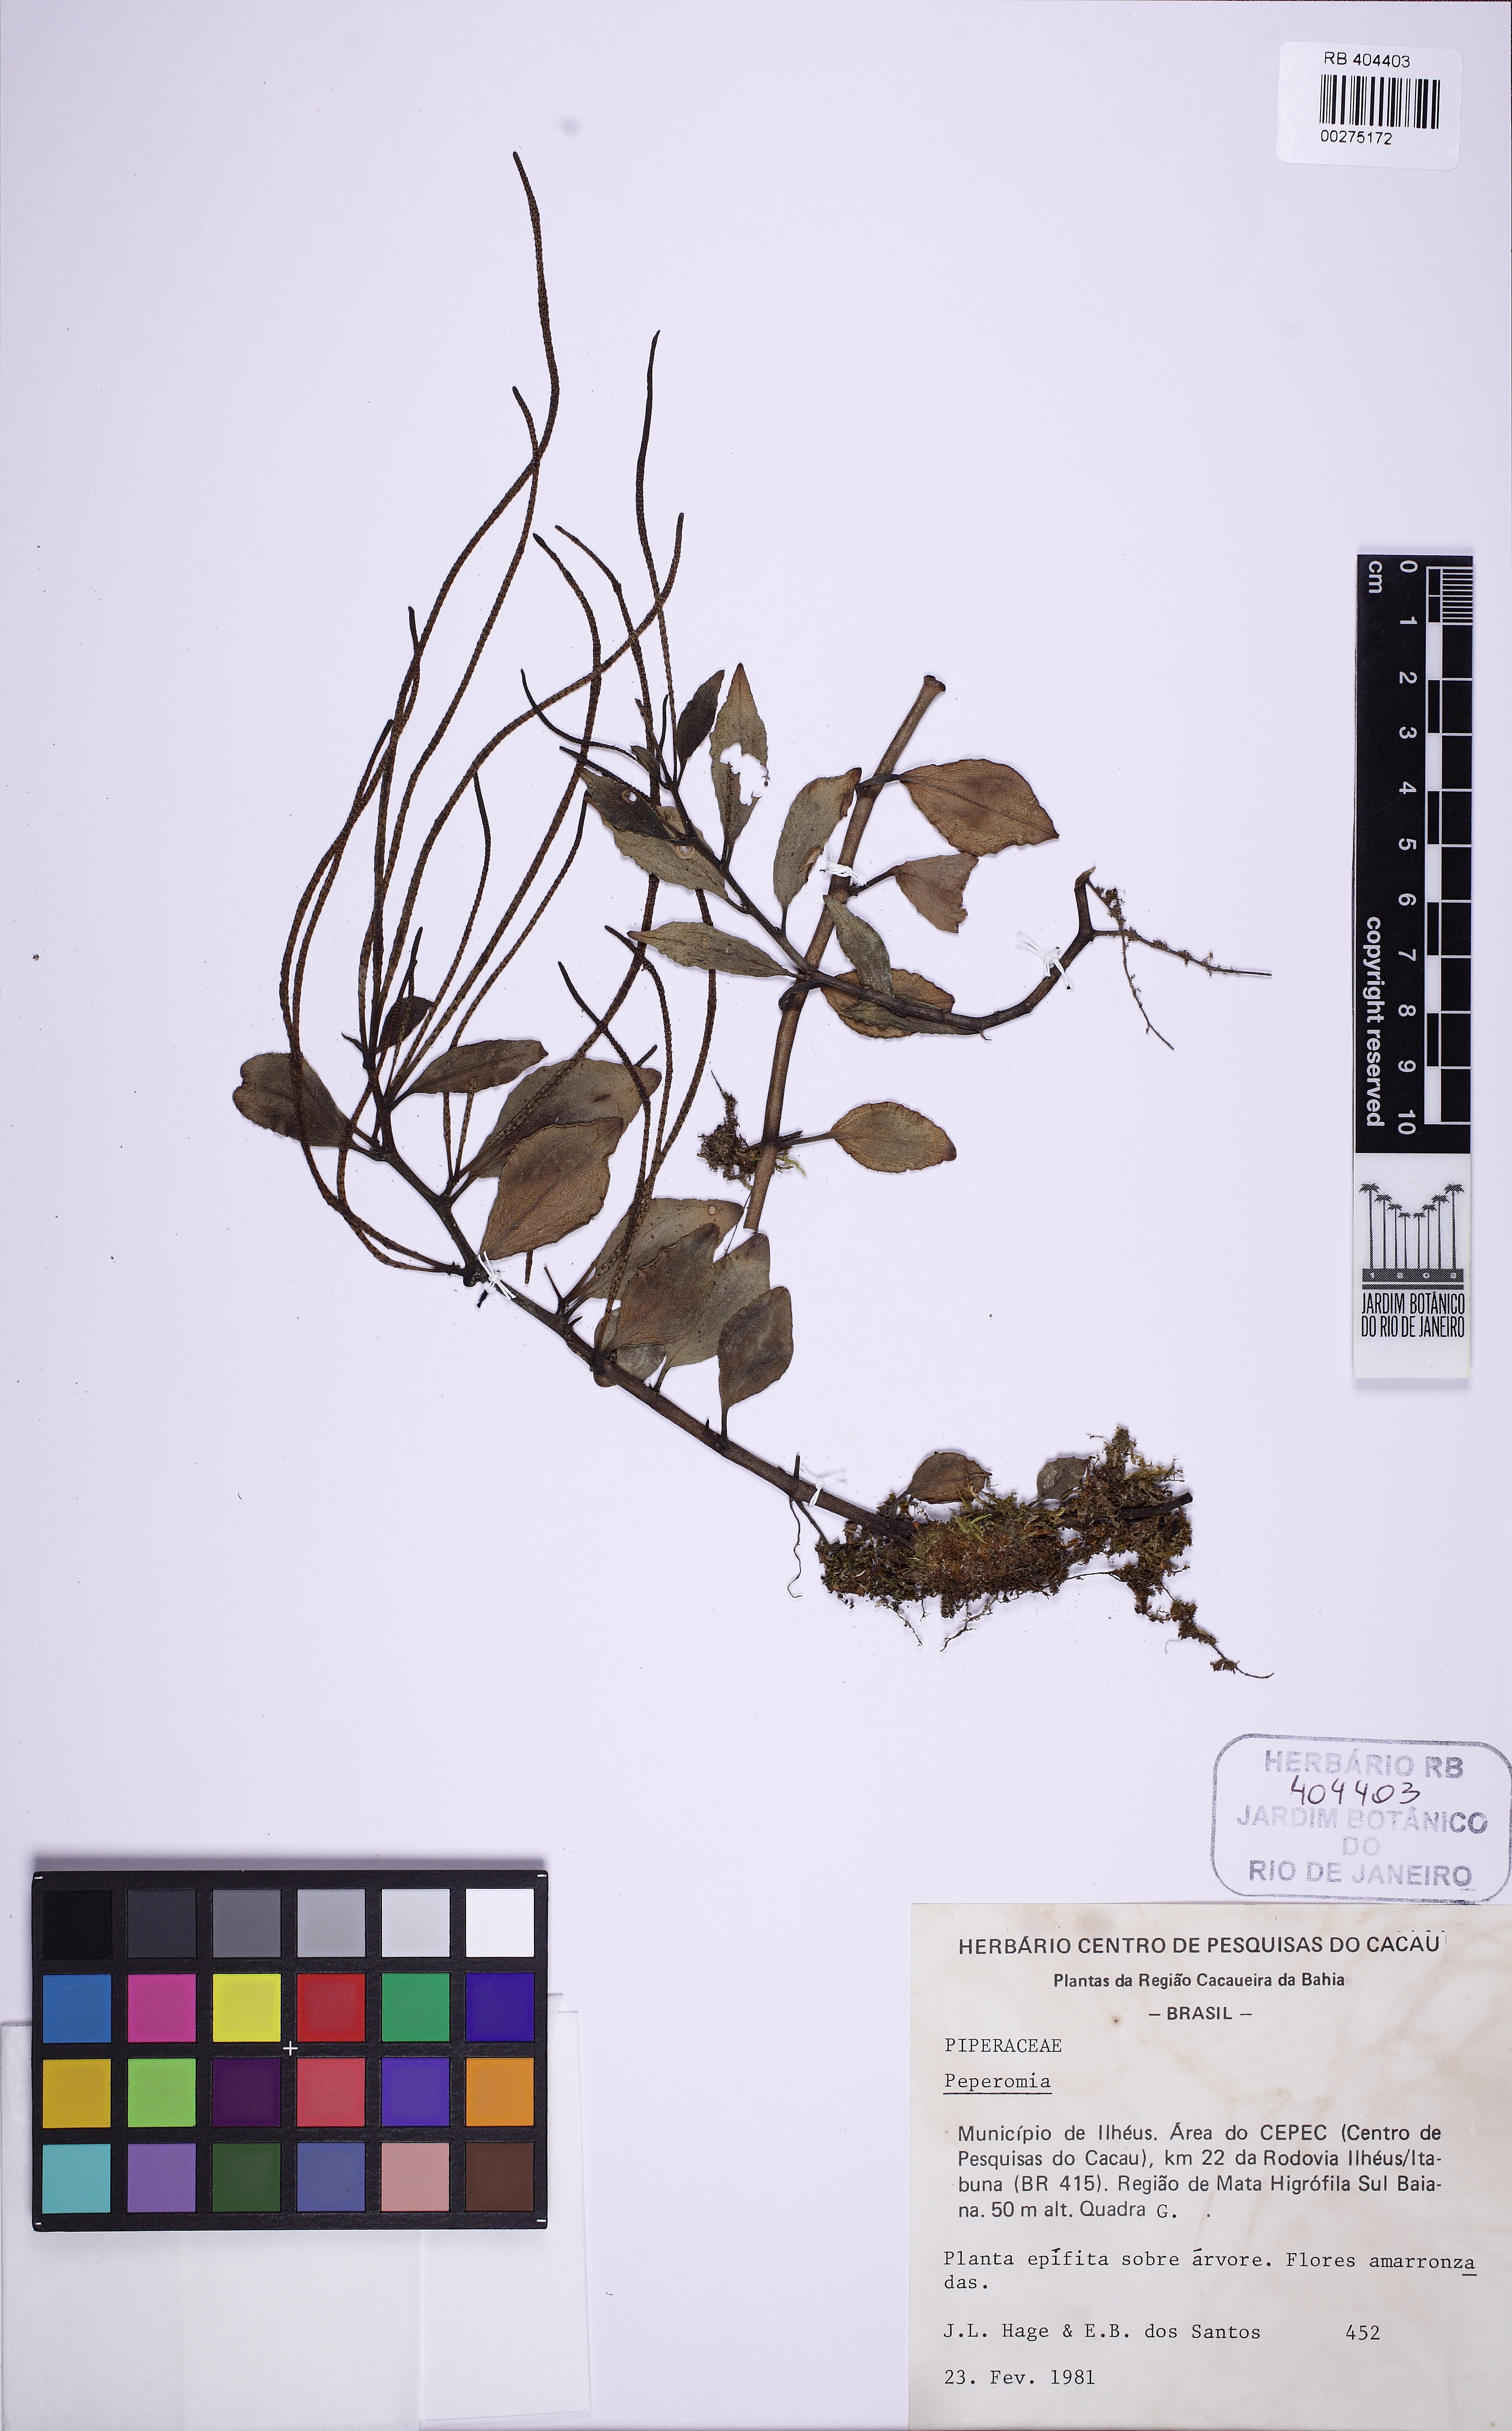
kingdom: Plantae
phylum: Tracheophyta
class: Magnoliopsida
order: Piperales
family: Piperaceae
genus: Peperomia
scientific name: Peperomia glabella
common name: Cypress peperomia
